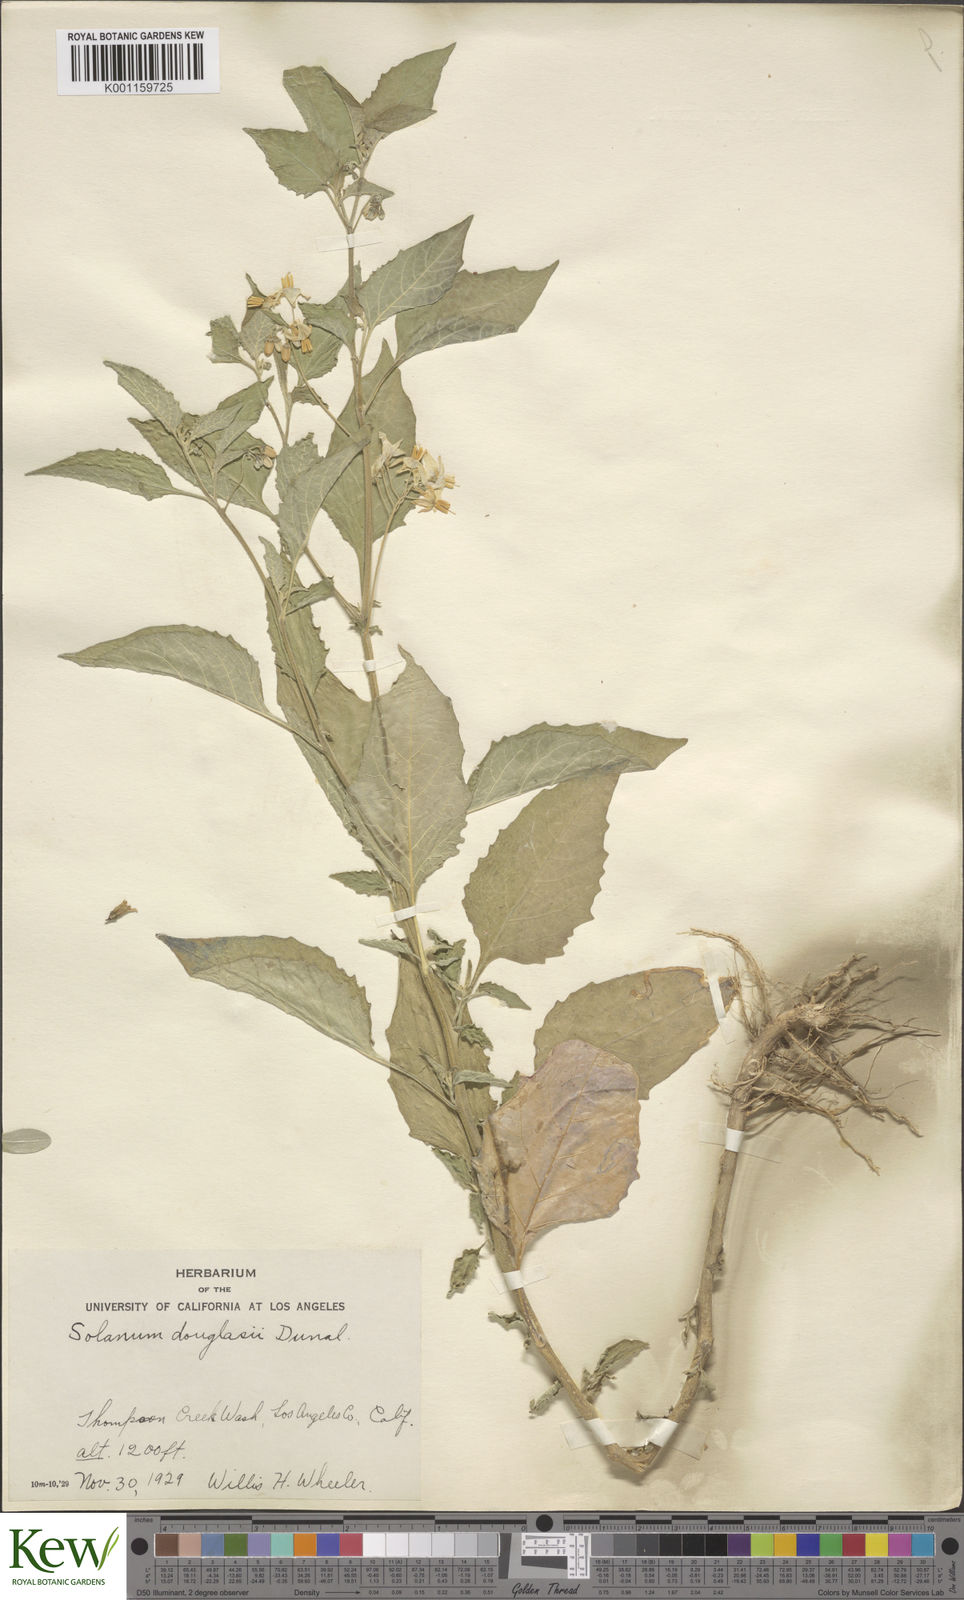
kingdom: Plantae
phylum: Tracheophyta
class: Magnoliopsida
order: Solanales
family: Solanaceae
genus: Solanum
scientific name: Solanum douglasii
